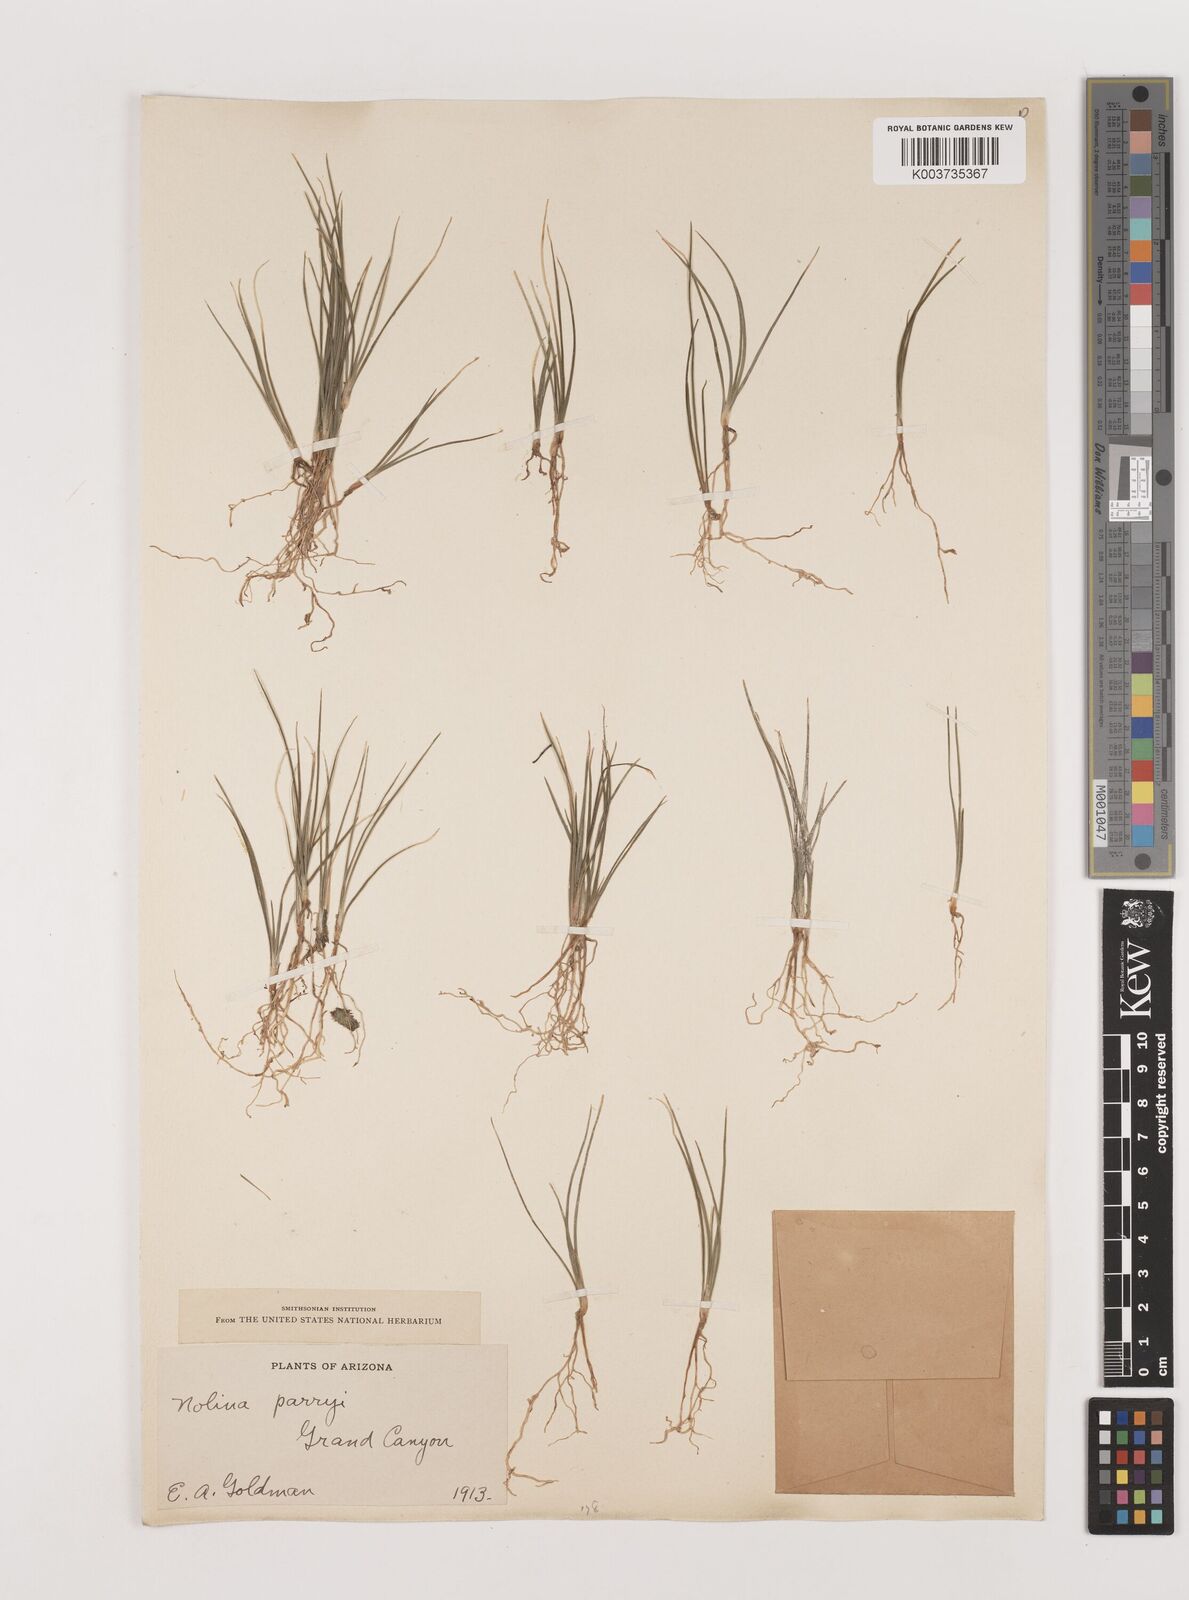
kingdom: Plantae
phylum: Tracheophyta
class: Liliopsida
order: Asparagales
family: Asparagaceae
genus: Nolina
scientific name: Nolina parryi
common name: Parry nolina
